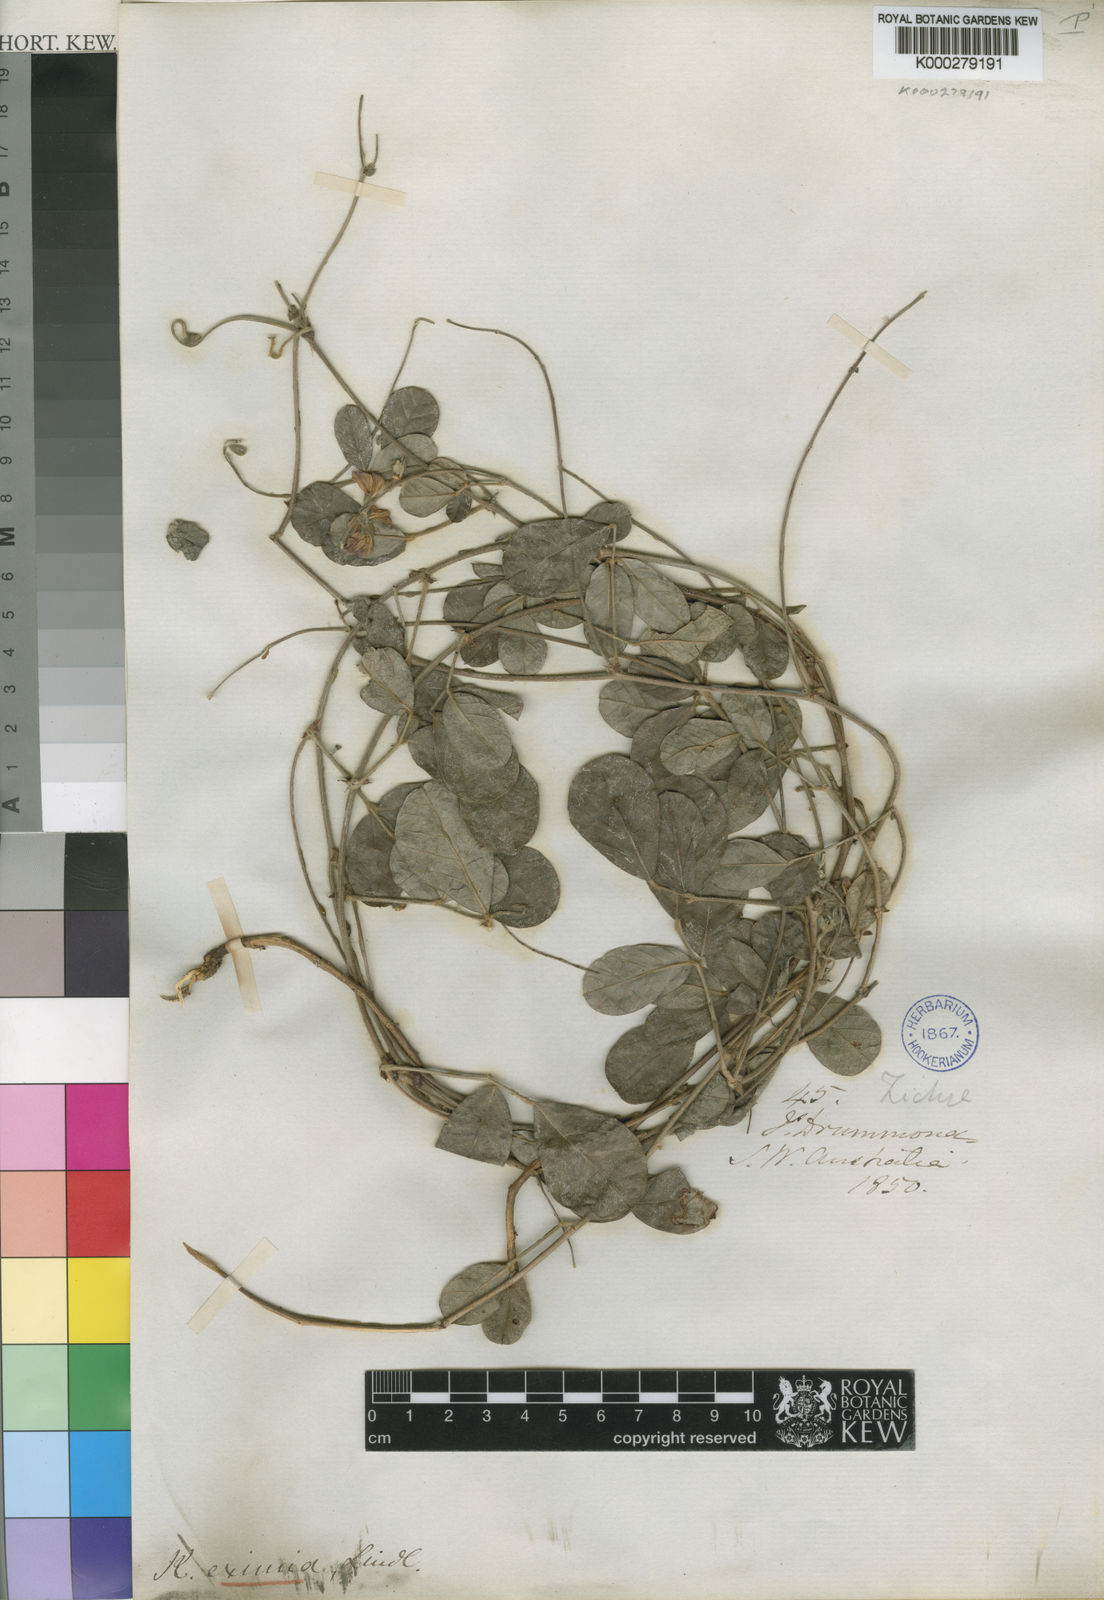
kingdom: Plantae
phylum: Tracheophyta
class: Magnoliopsida
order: Fabales
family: Fabaceae
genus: Kennedia
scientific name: Kennedia
